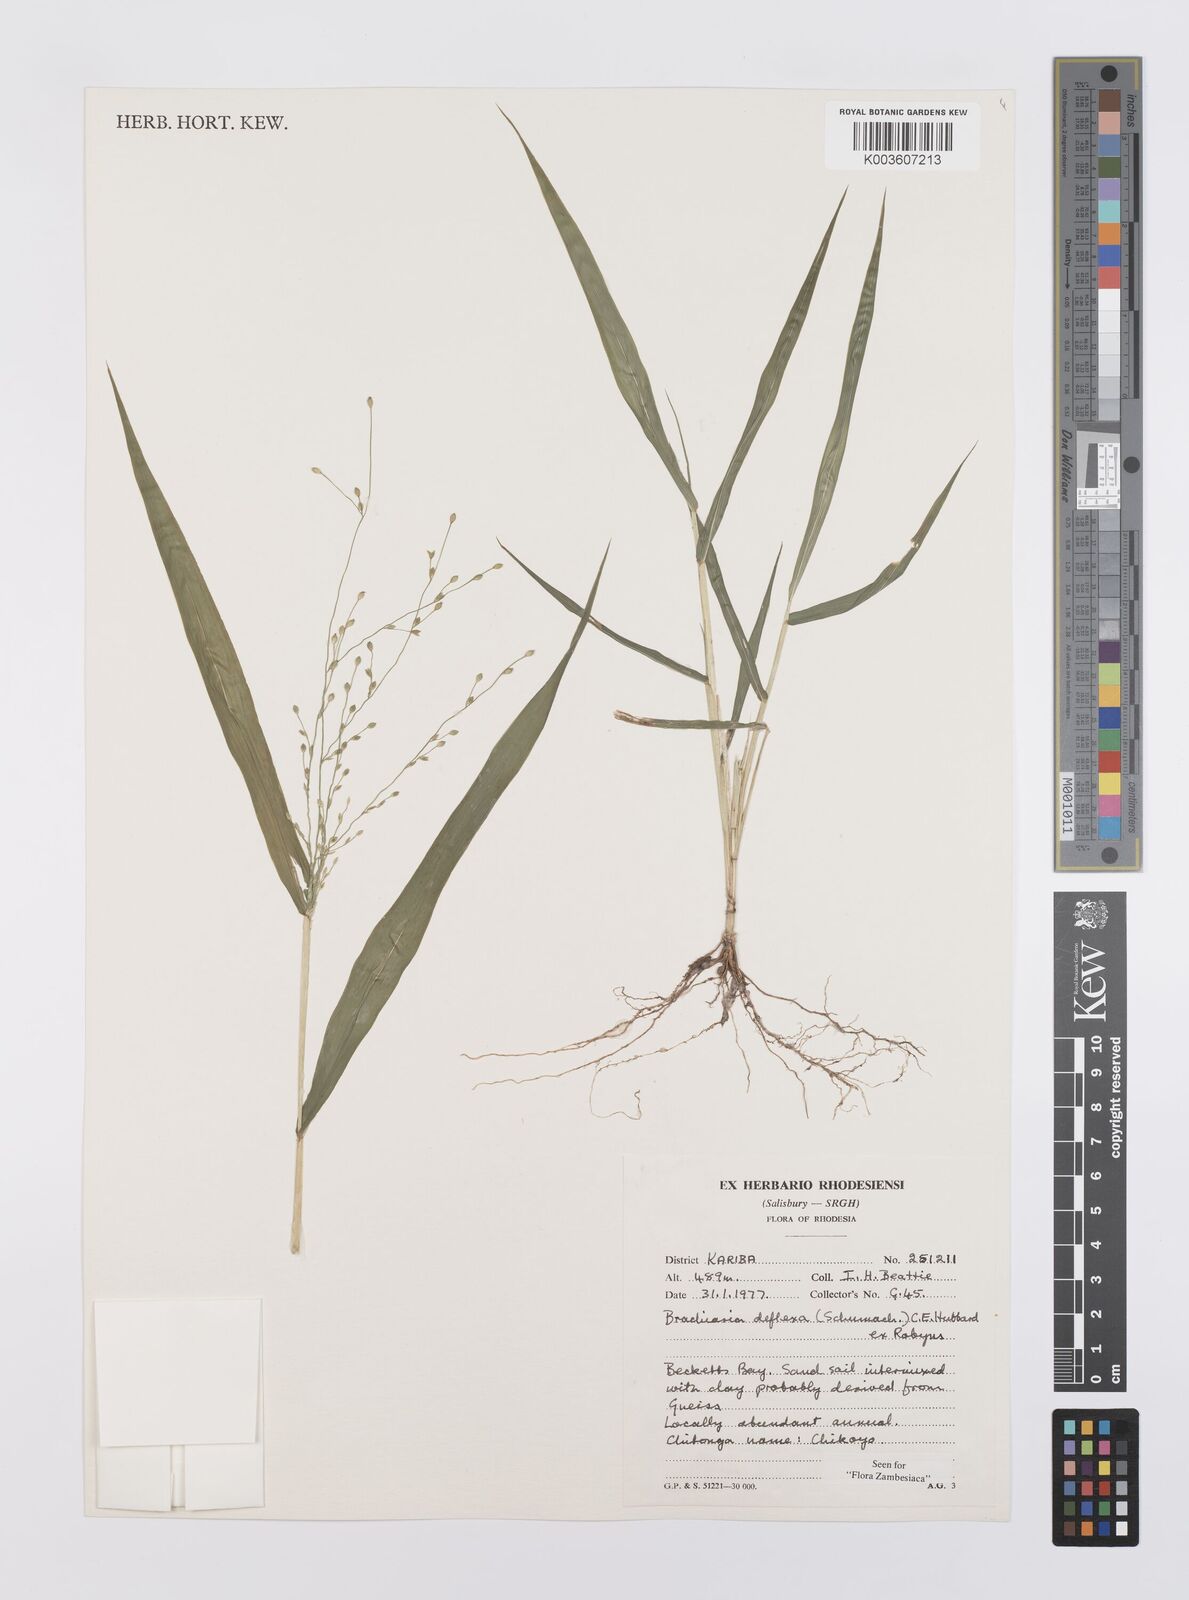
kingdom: Plantae
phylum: Tracheophyta
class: Liliopsida
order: Poales
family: Poaceae
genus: Urochloa
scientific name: Urochloa deflexa
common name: Guinea millet
